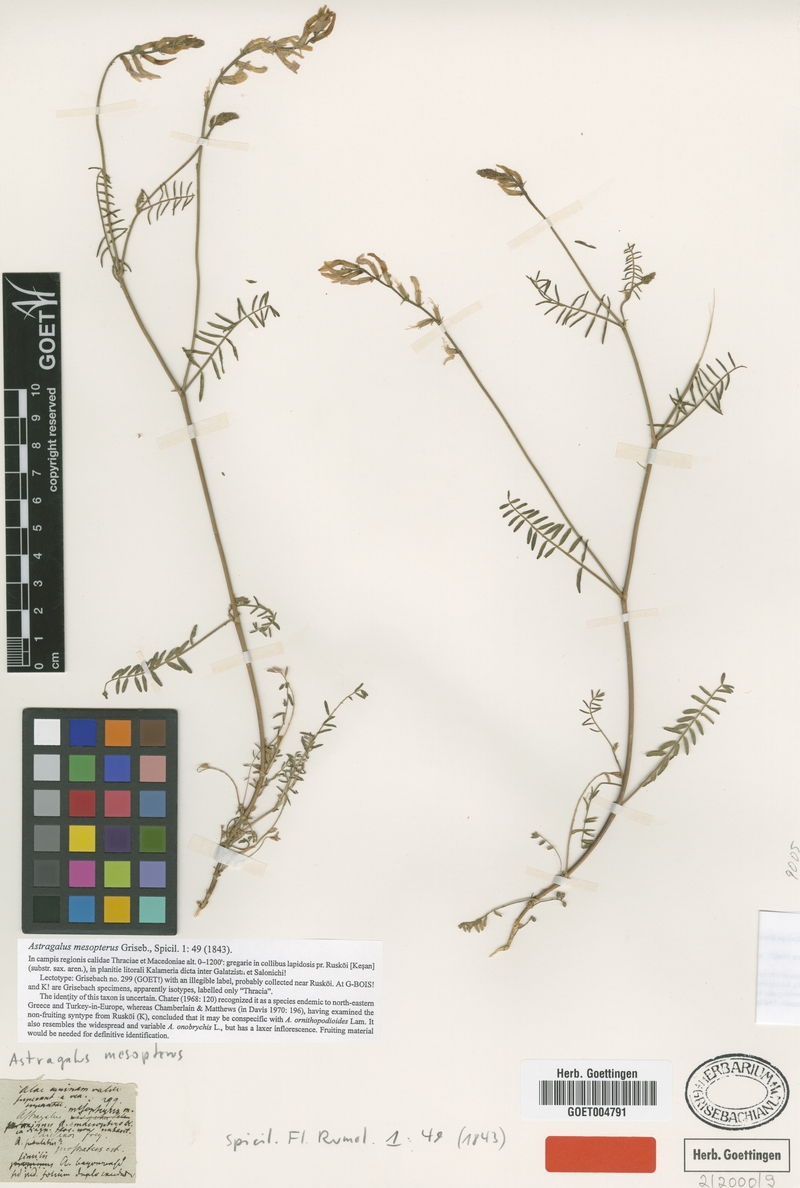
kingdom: Plantae
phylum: Tracheophyta
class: Magnoliopsida
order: Fabales
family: Fabaceae
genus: Astragalus
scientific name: Astragalus mesopterus
